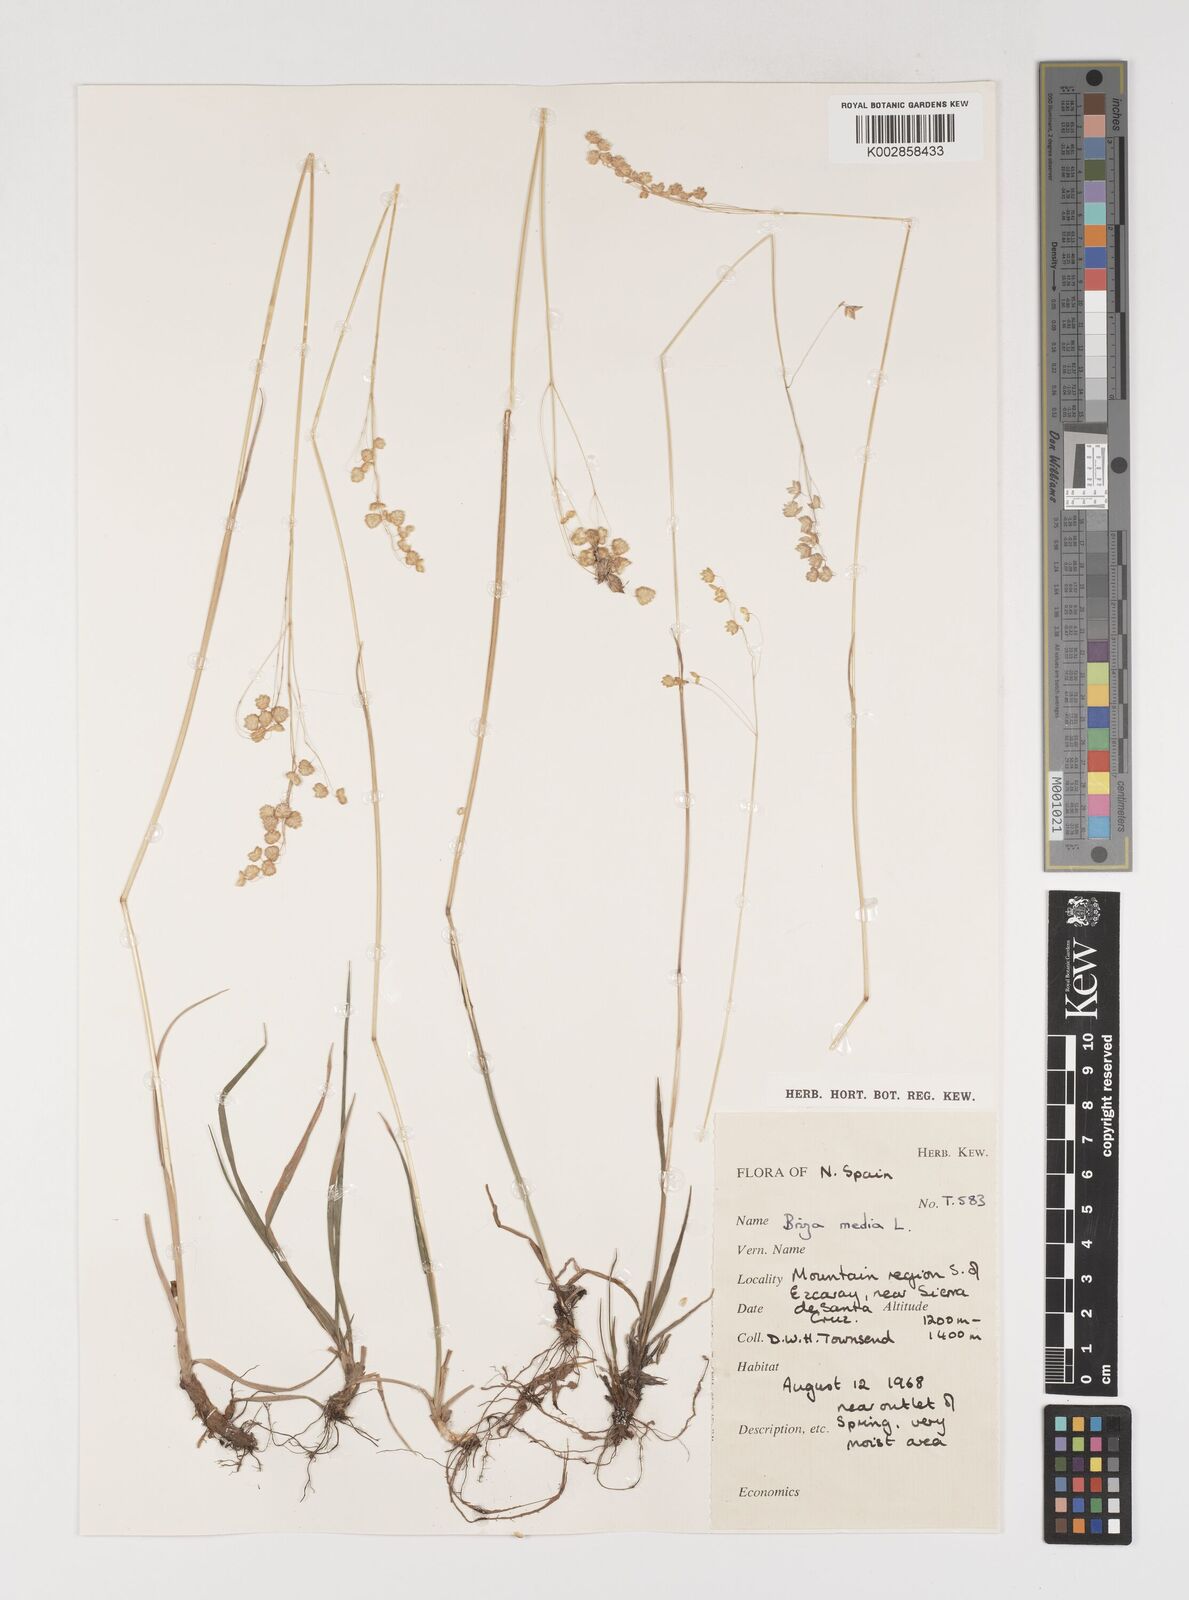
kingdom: Plantae
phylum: Tracheophyta
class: Liliopsida
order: Poales
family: Poaceae
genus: Briza
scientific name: Briza media
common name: Quaking grass
